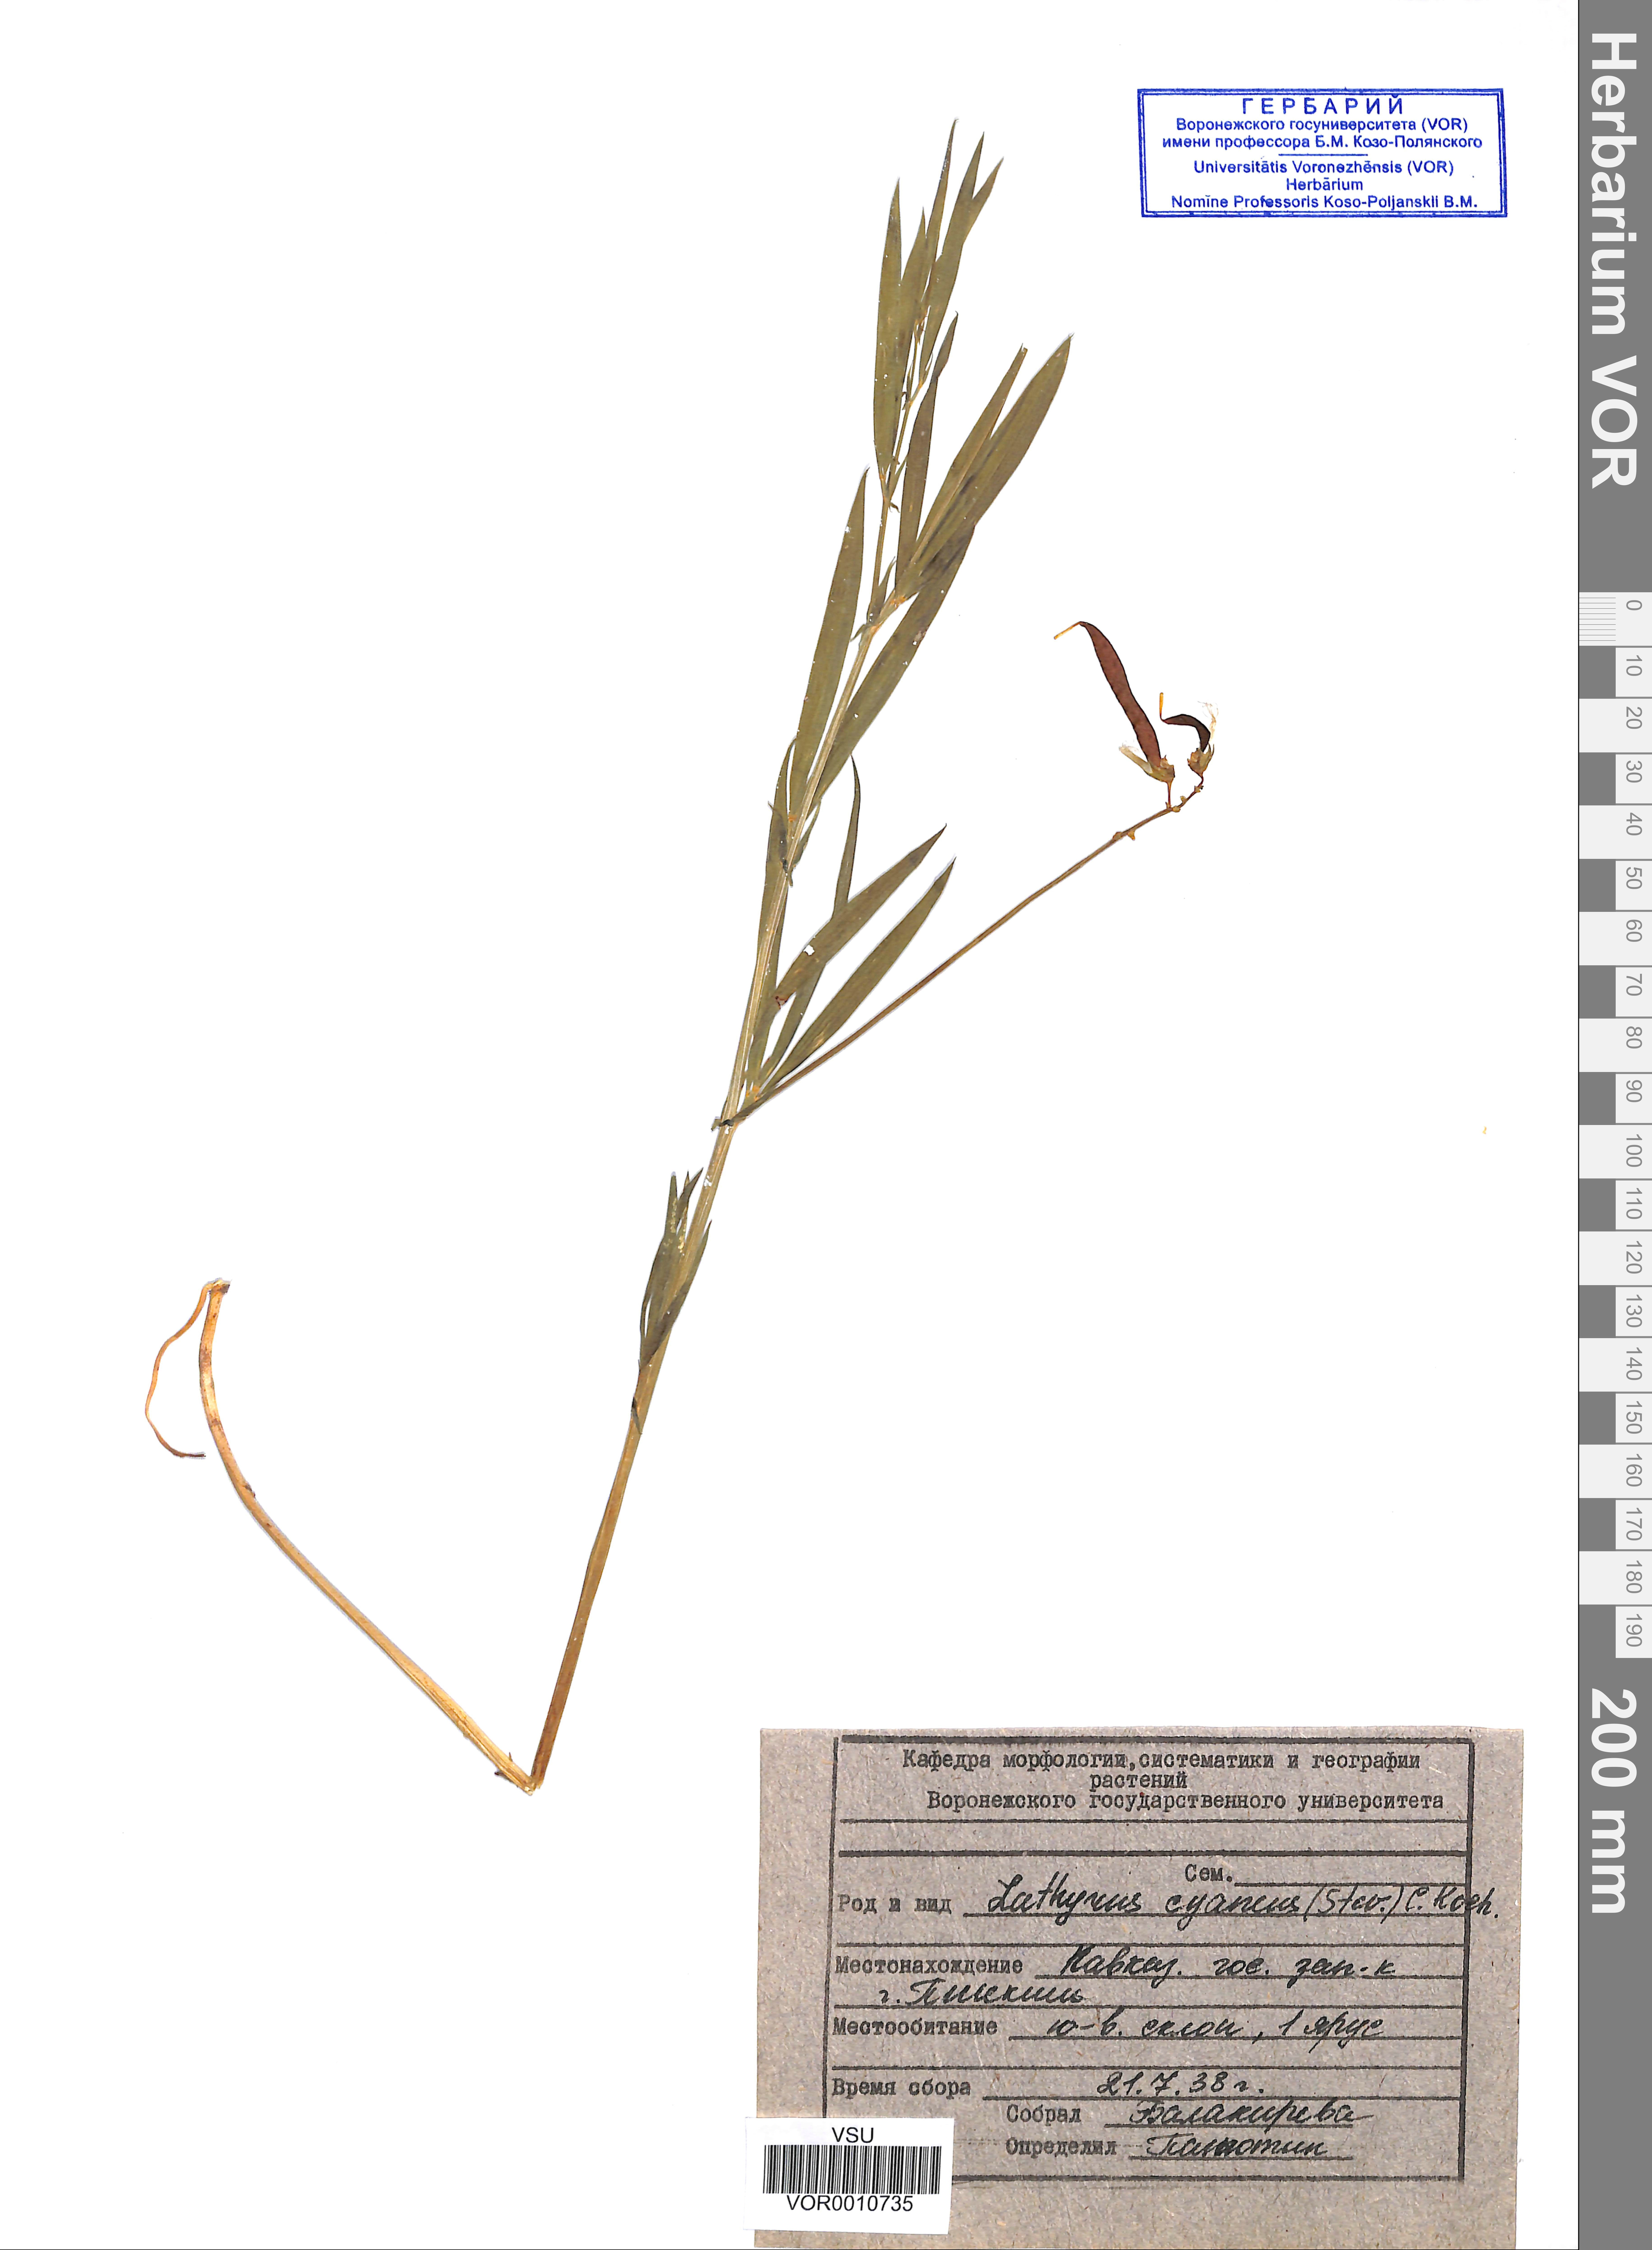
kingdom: Plantae
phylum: Tracheophyta
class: Magnoliopsida
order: Fabales
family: Fabaceae
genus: Lathyrus
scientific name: Lathyrus cyaneus
